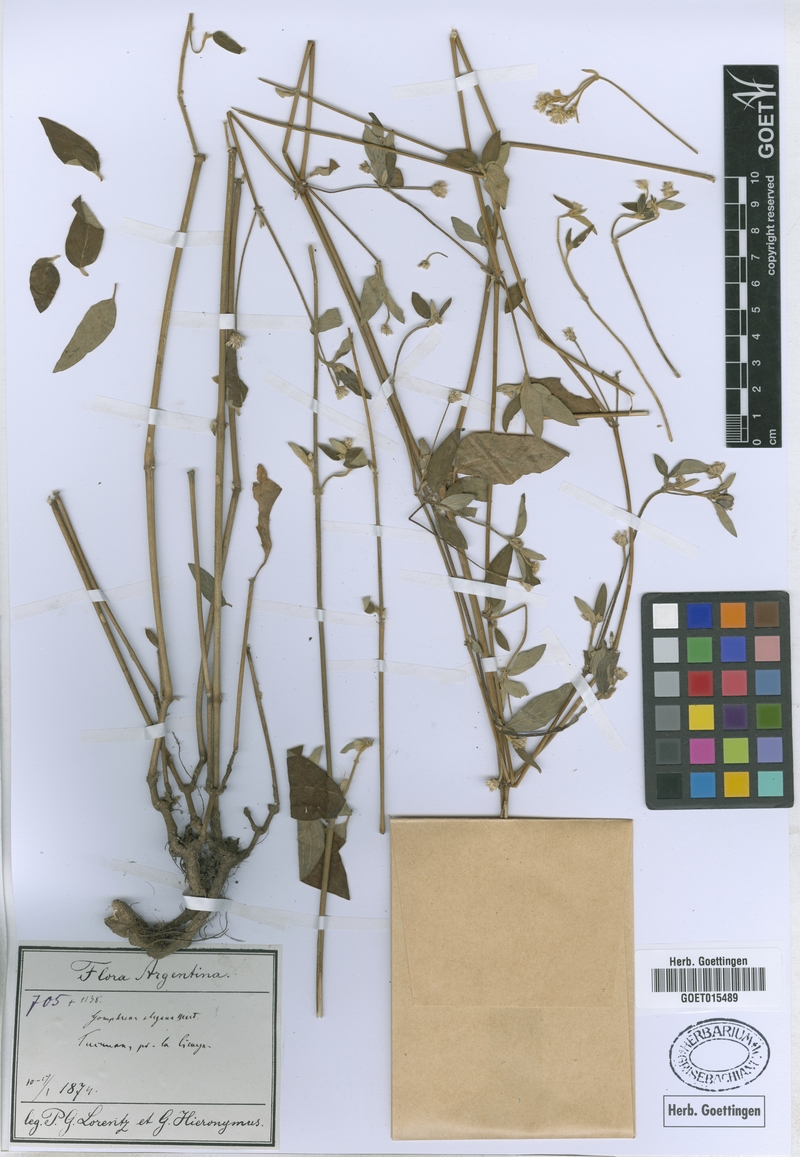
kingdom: Plantae
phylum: Tracheophyta
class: Magnoliopsida
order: Caryophyllales
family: Amaranthaceae
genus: Gomphrena
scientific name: Gomphrena elegans
